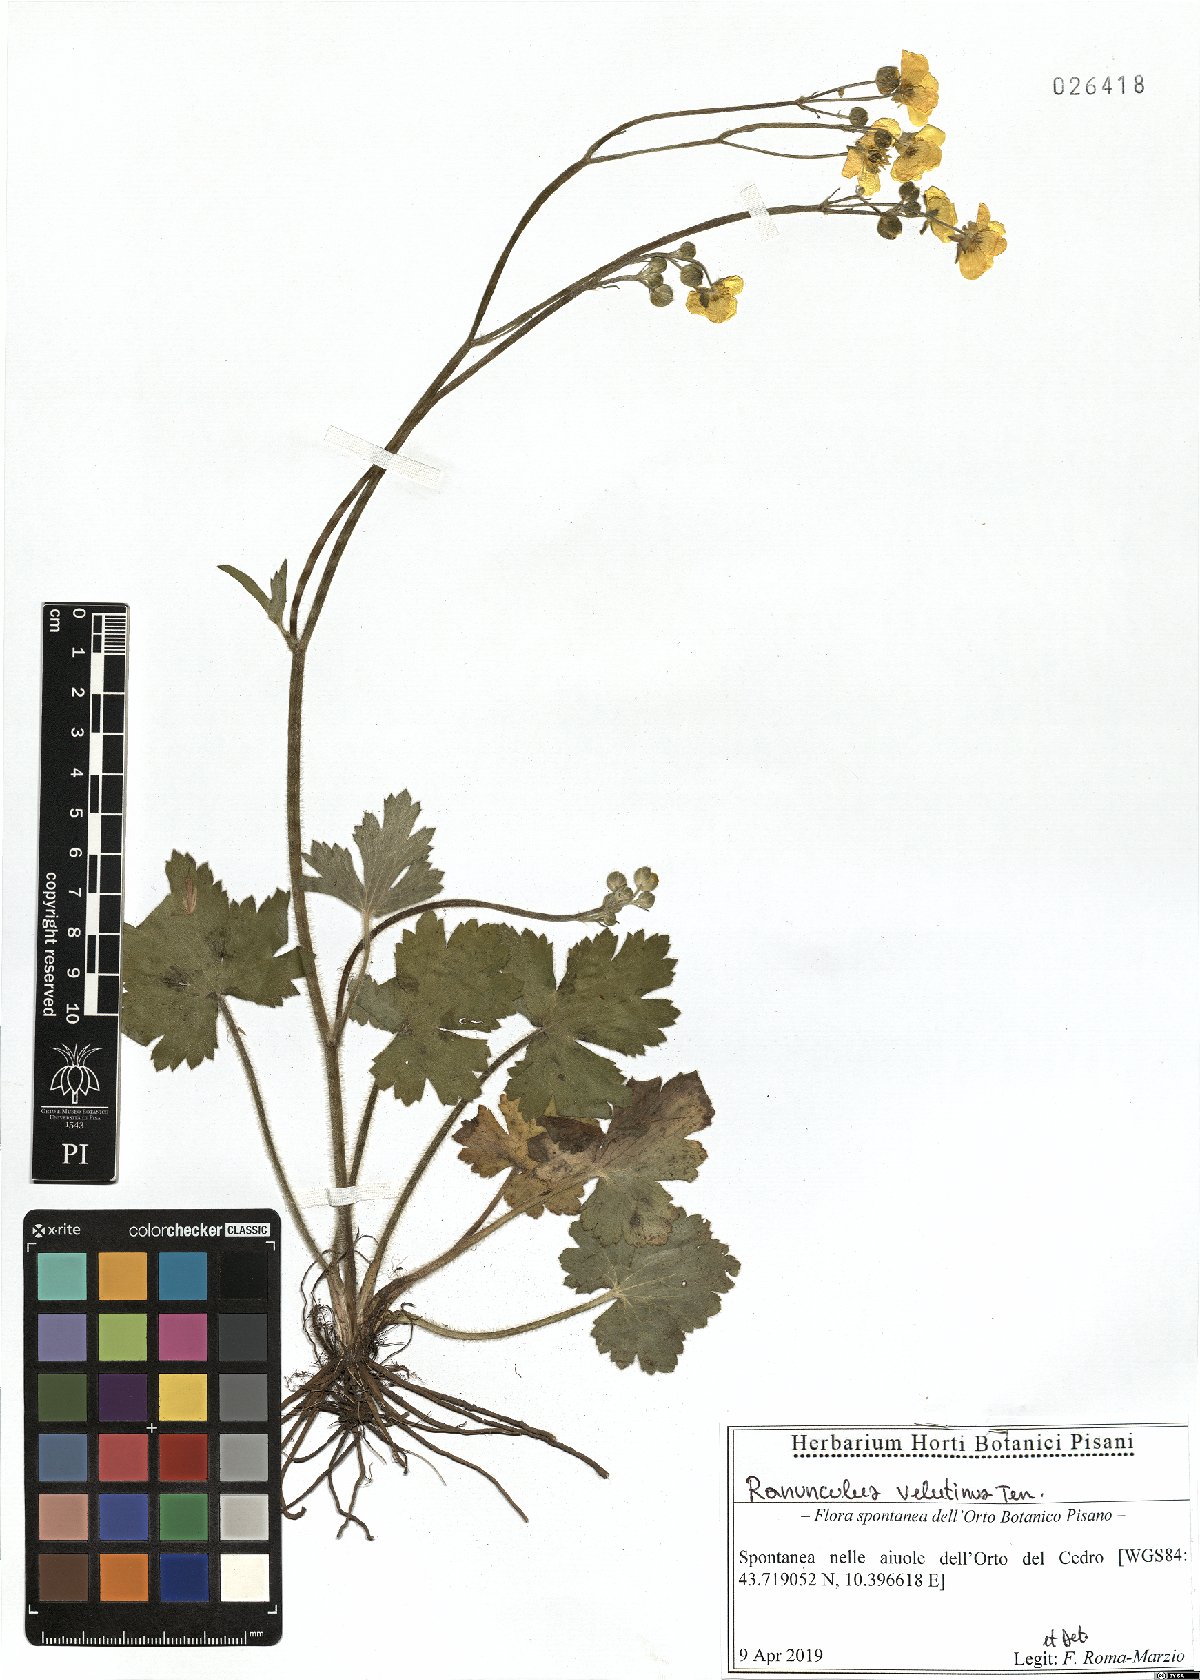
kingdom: Plantae
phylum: Tracheophyta
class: Magnoliopsida
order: Ranunculales
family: Ranunculaceae
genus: Ranunculus
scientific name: Ranunculus velutinus
